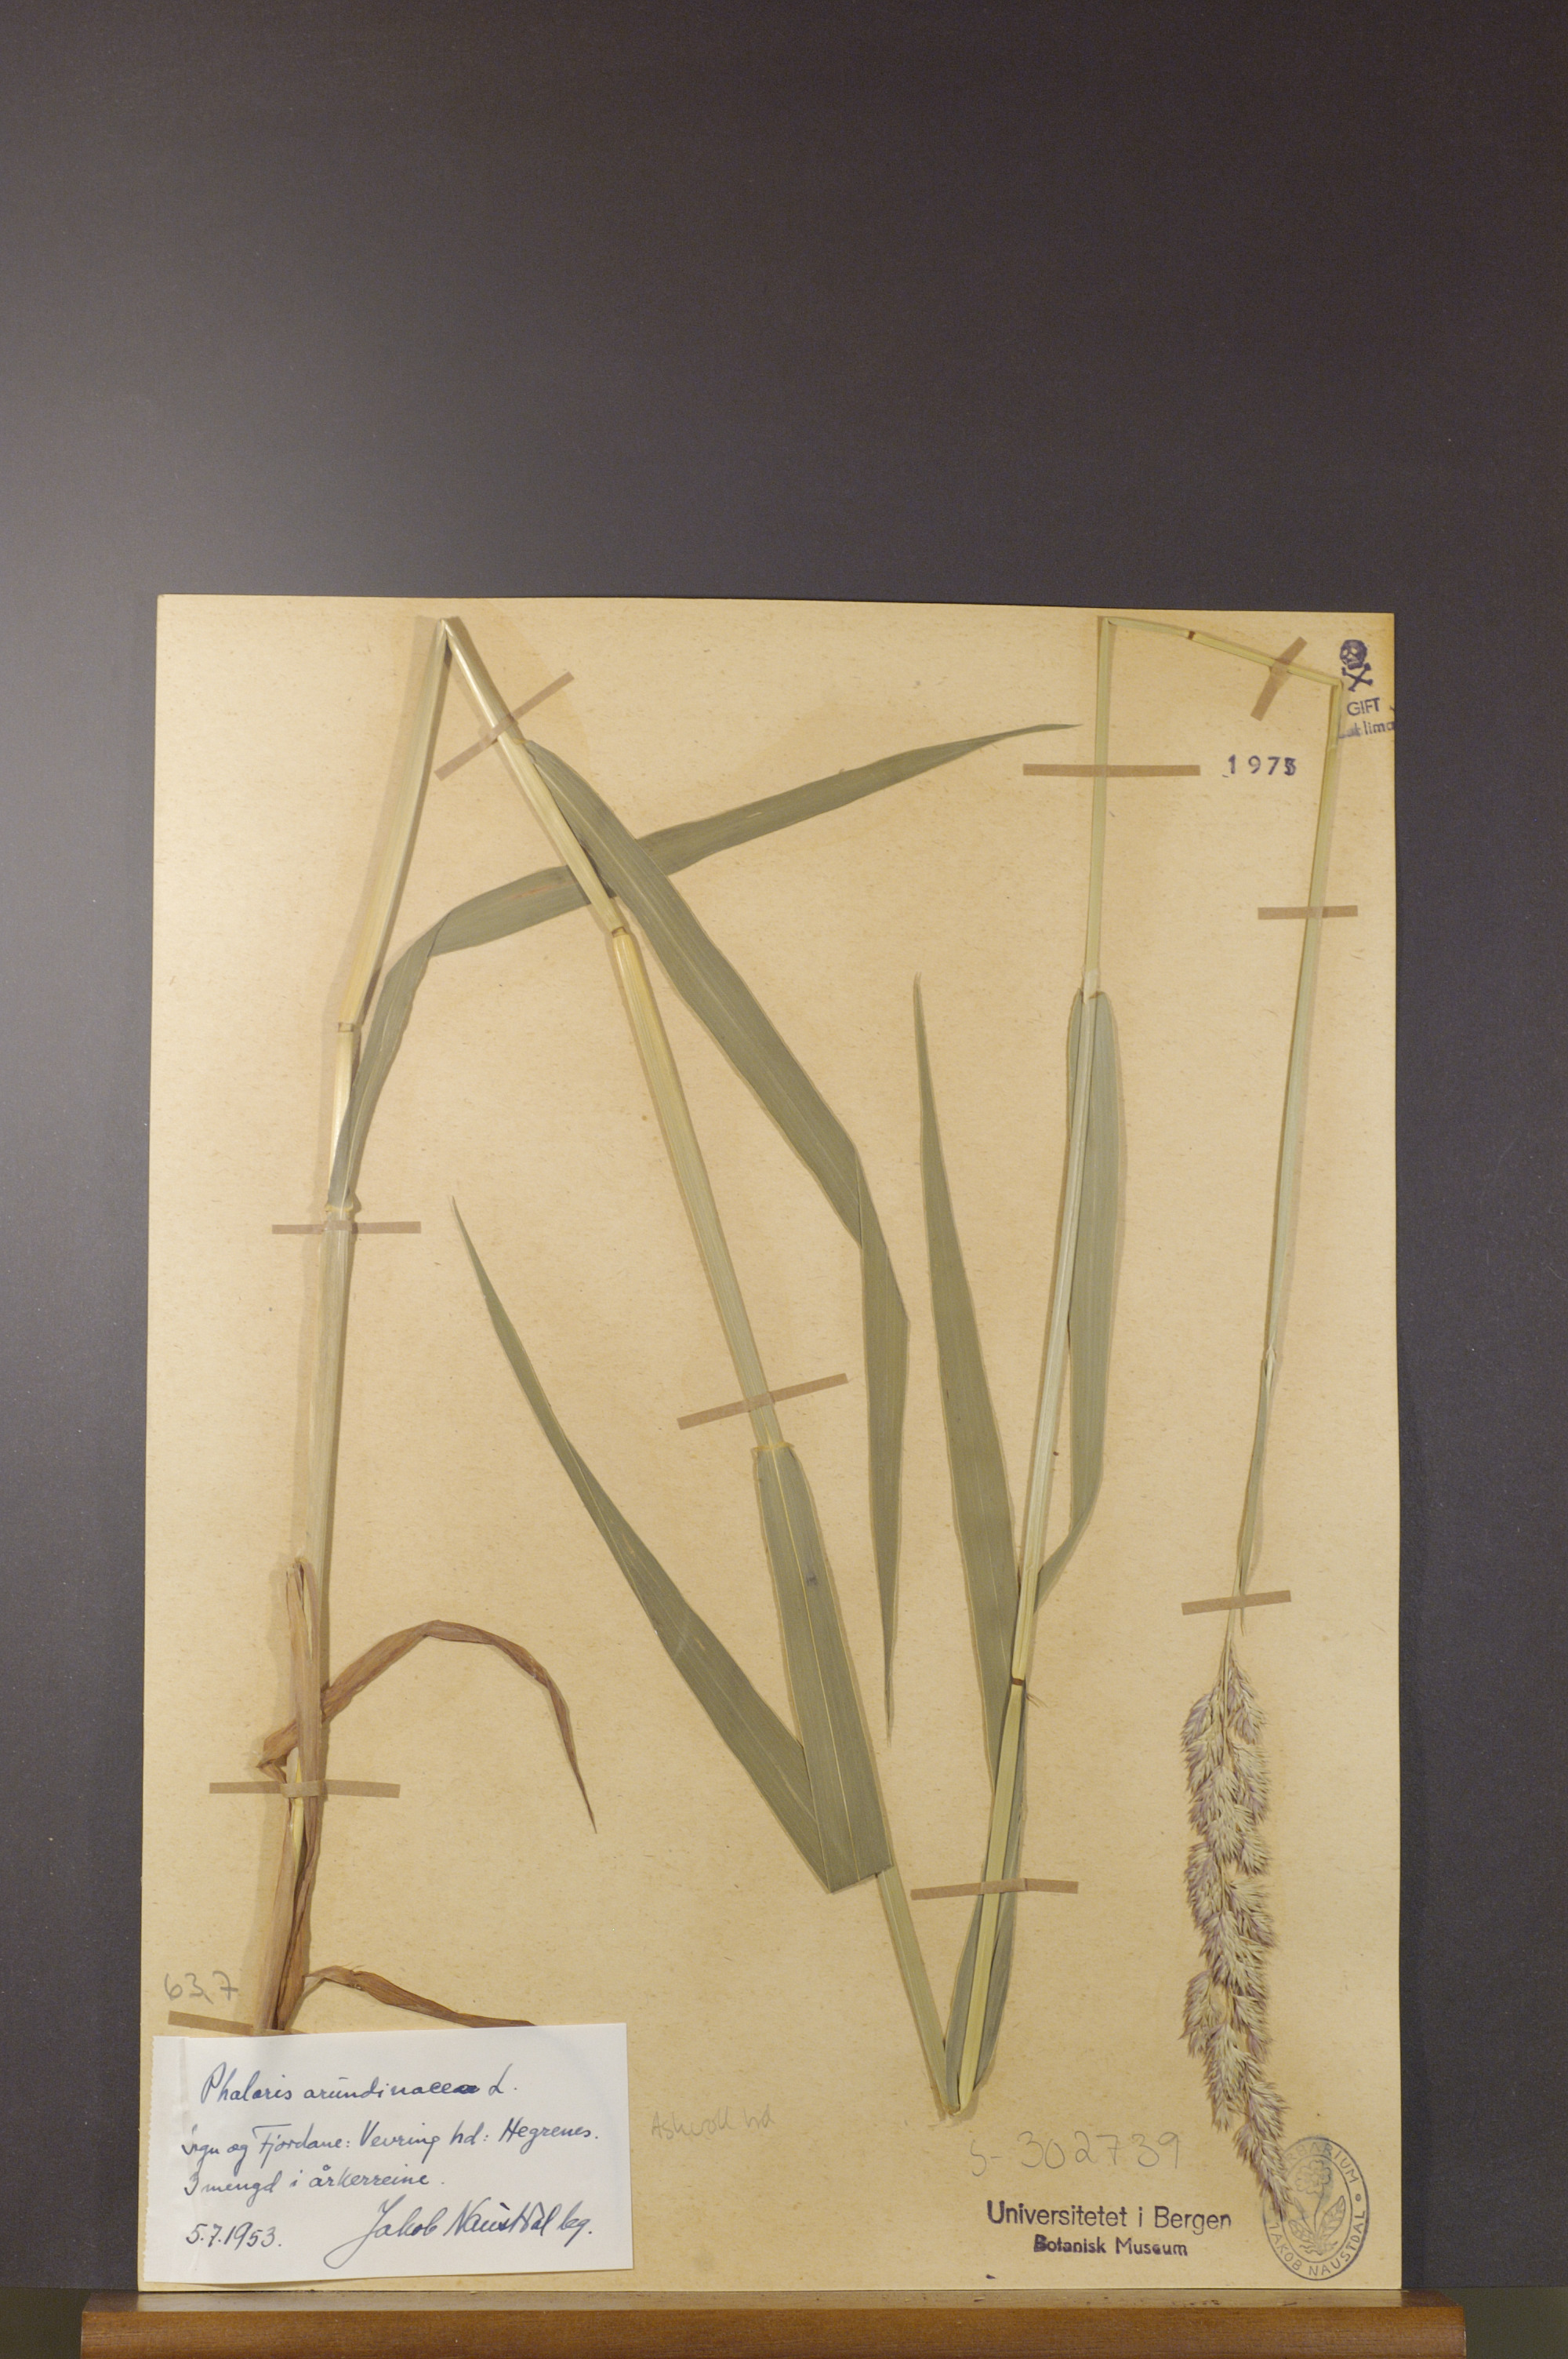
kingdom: Plantae
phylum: Tracheophyta
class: Liliopsida
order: Poales
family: Poaceae
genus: Phalaris
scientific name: Phalaris arundinacea
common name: Reed canary-grass
